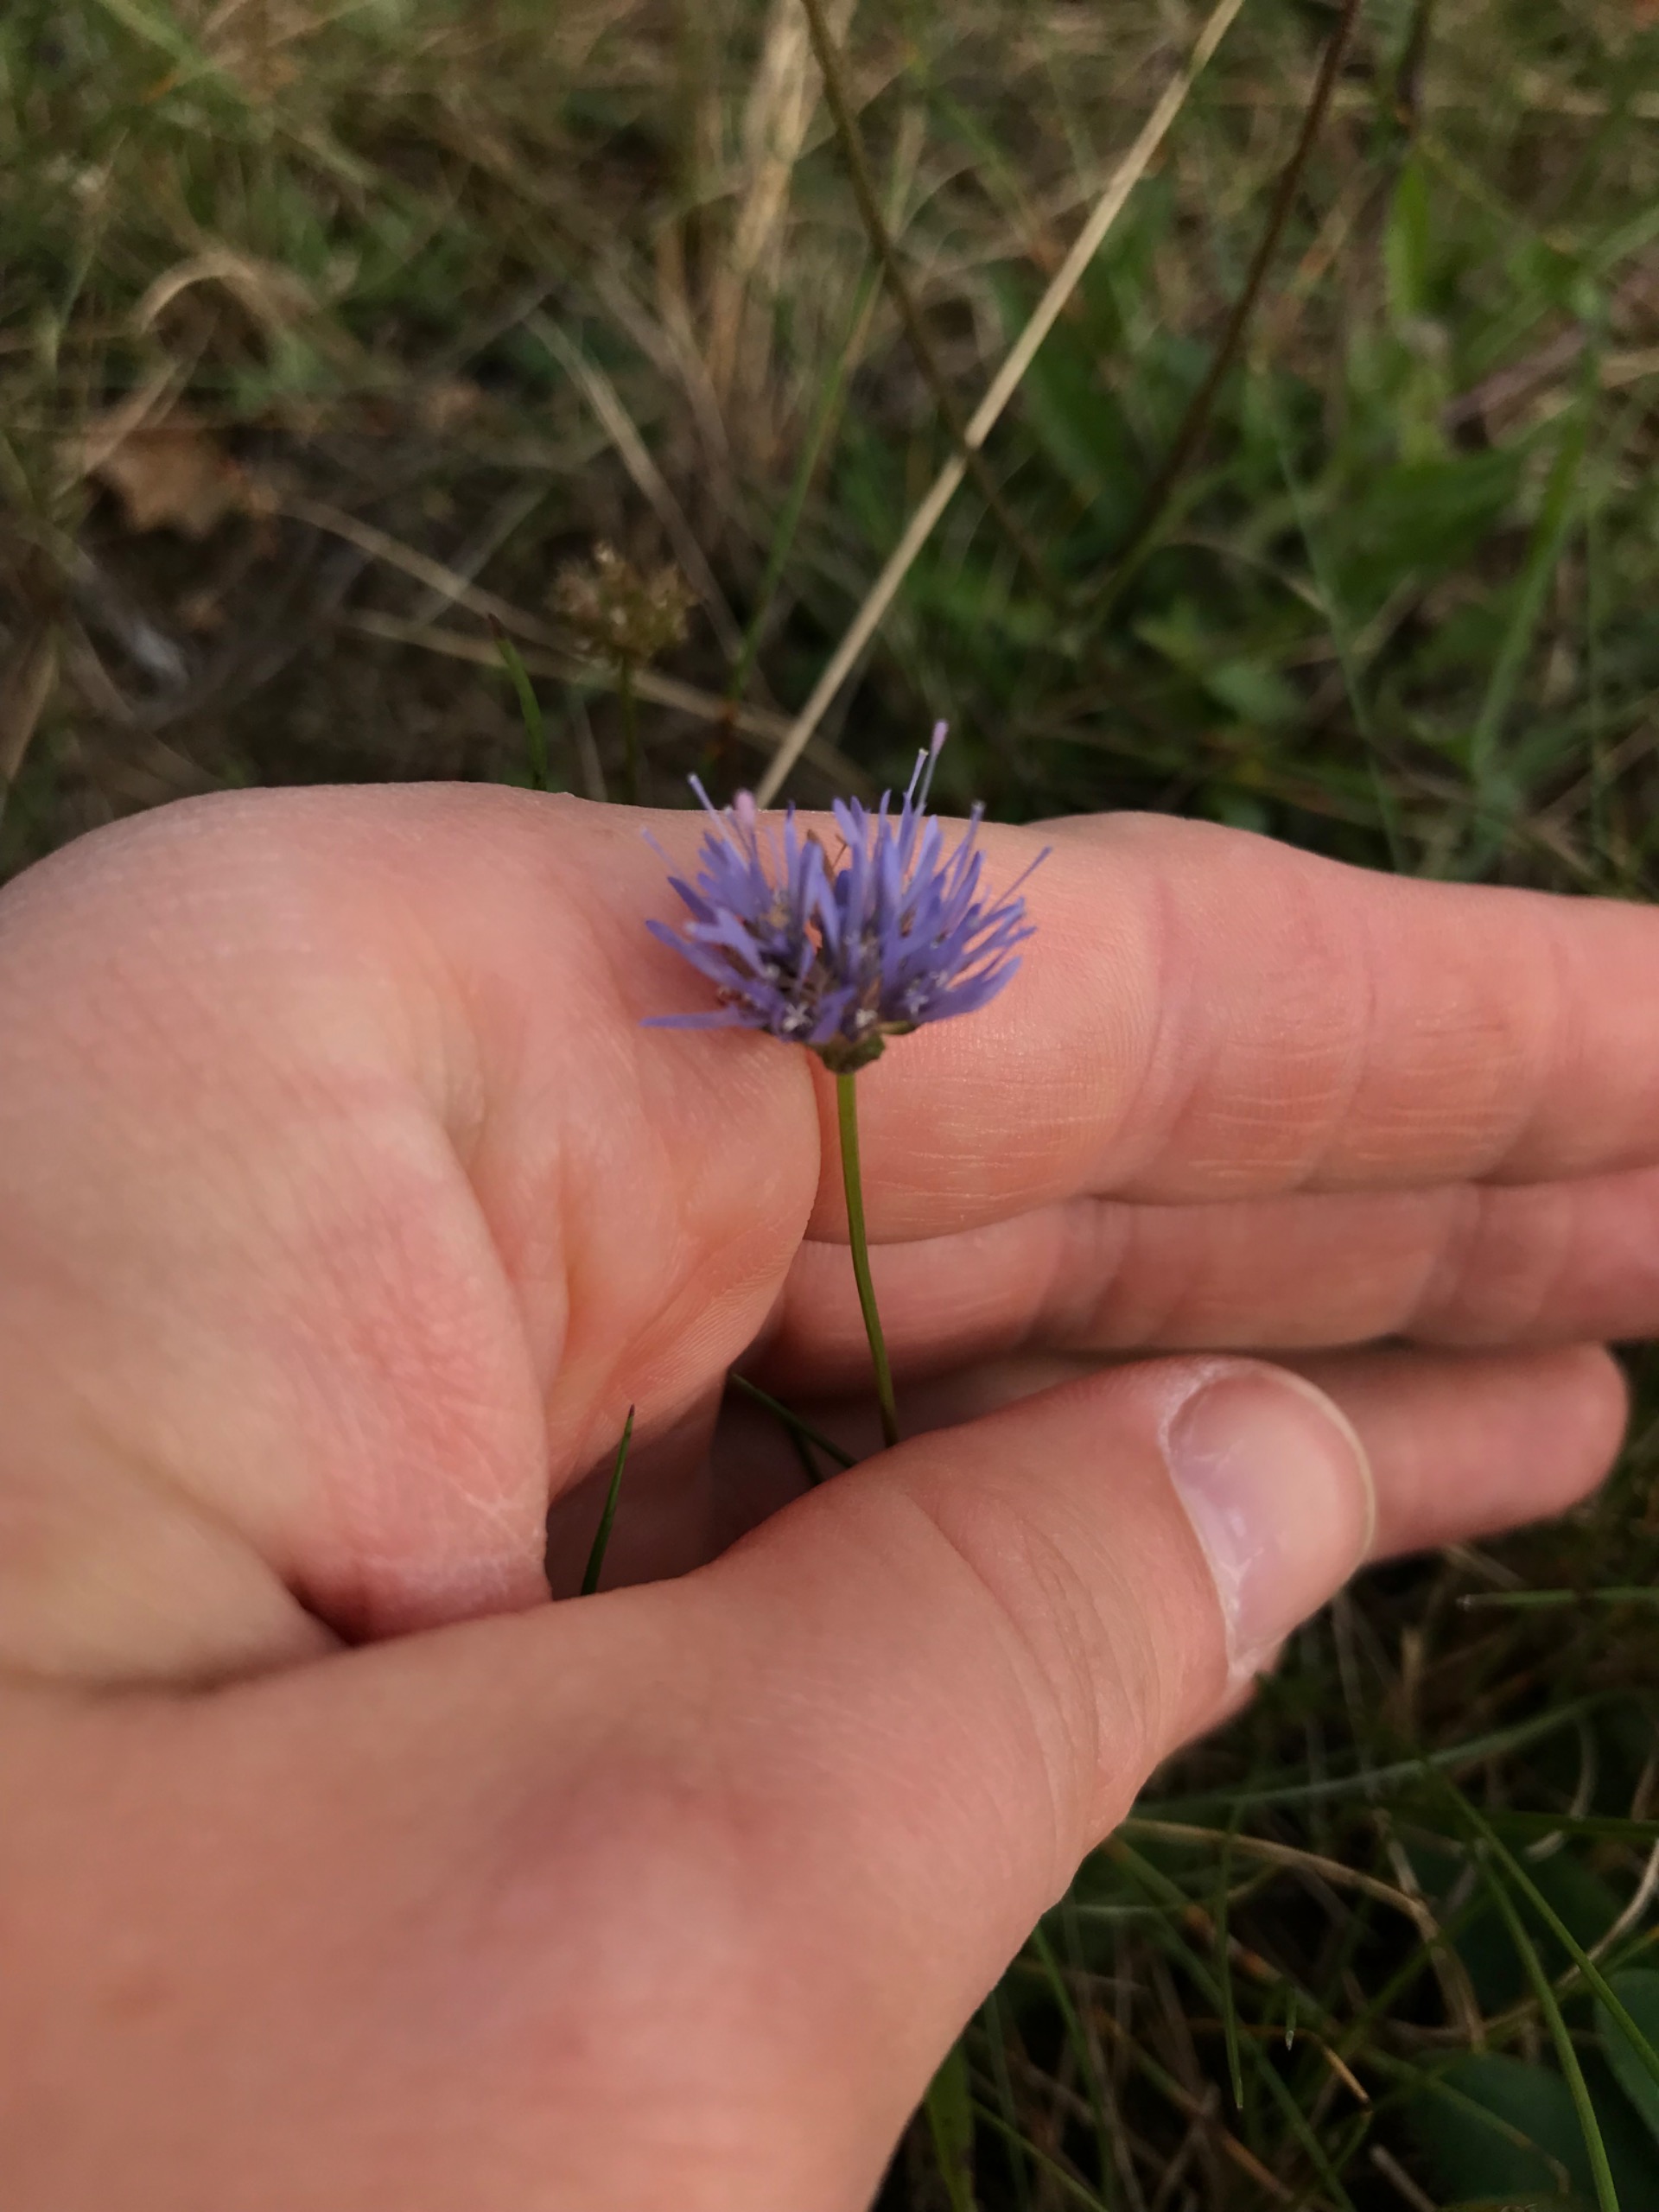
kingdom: Plantae
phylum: Tracheophyta
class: Magnoliopsida
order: Asterales
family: Campanulaceae
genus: Jasione
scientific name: Jasione montana
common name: Blåmunke
